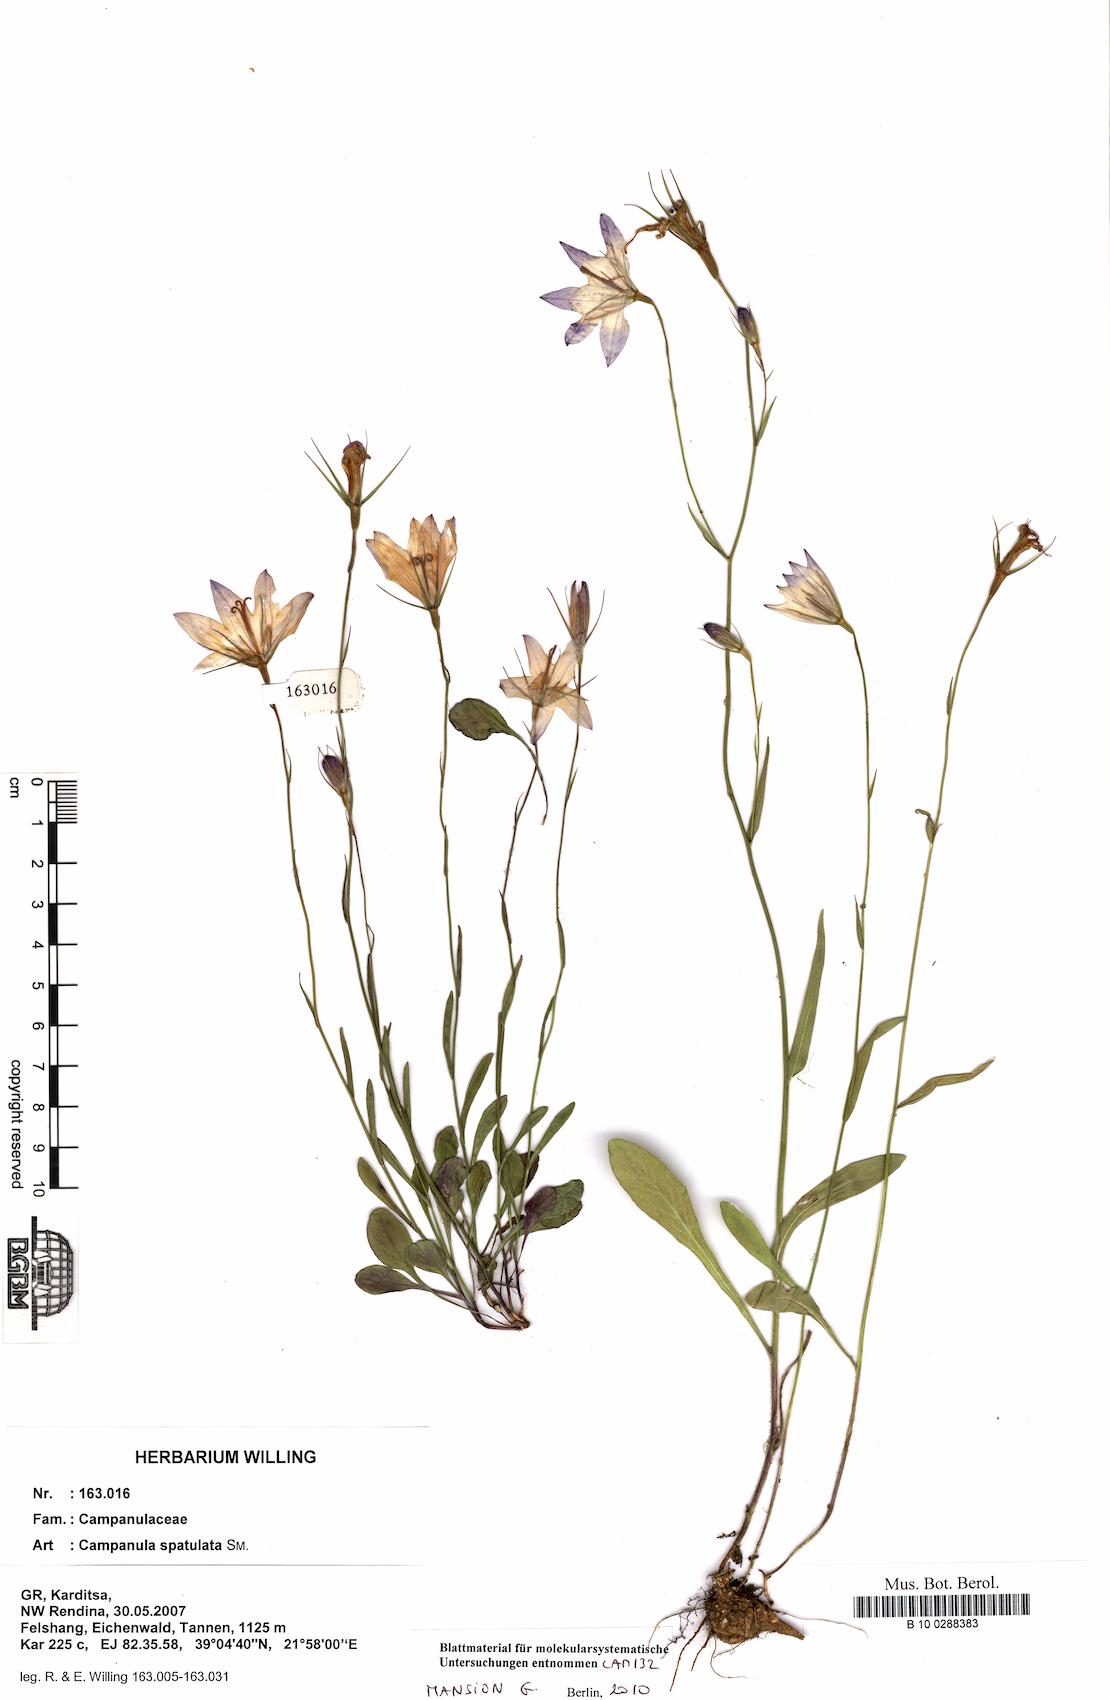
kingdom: Plantae
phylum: Tracheophyta
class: Magnoliopsida
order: Asterales
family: Campanulaceae
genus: Campanula
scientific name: Campanula spatulata
